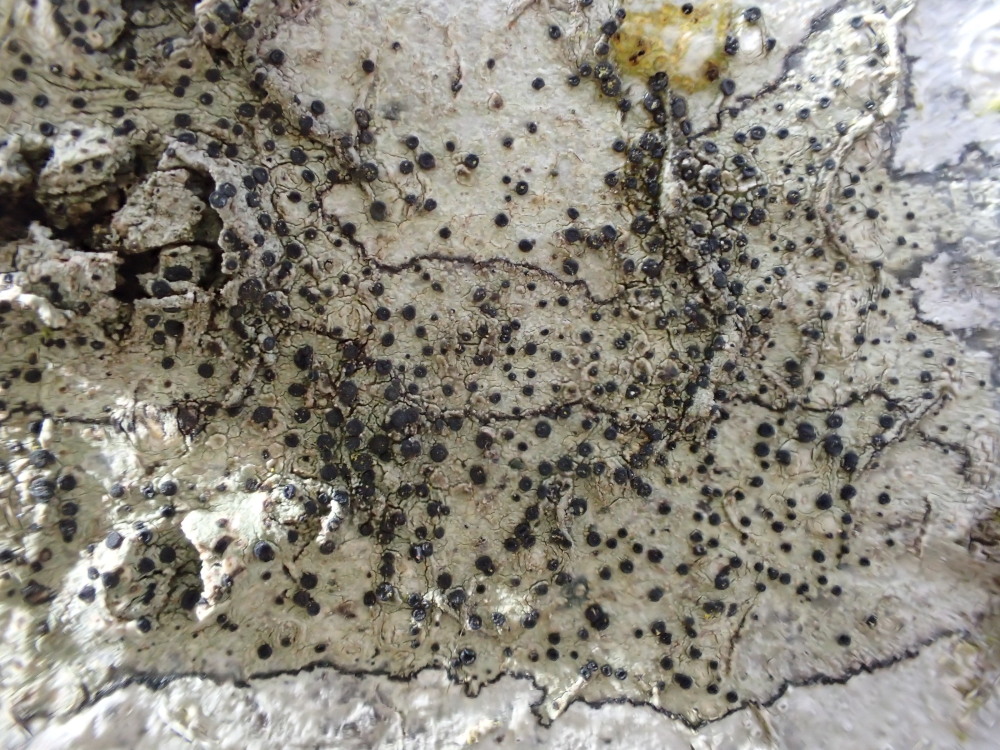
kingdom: Fungi
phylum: Ascomycota
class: Lecanoromycetes
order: Lecanorales
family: Lecanoraceae
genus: Lecidella
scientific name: Lecidella elaeochroma
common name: grågrøn skivelav
